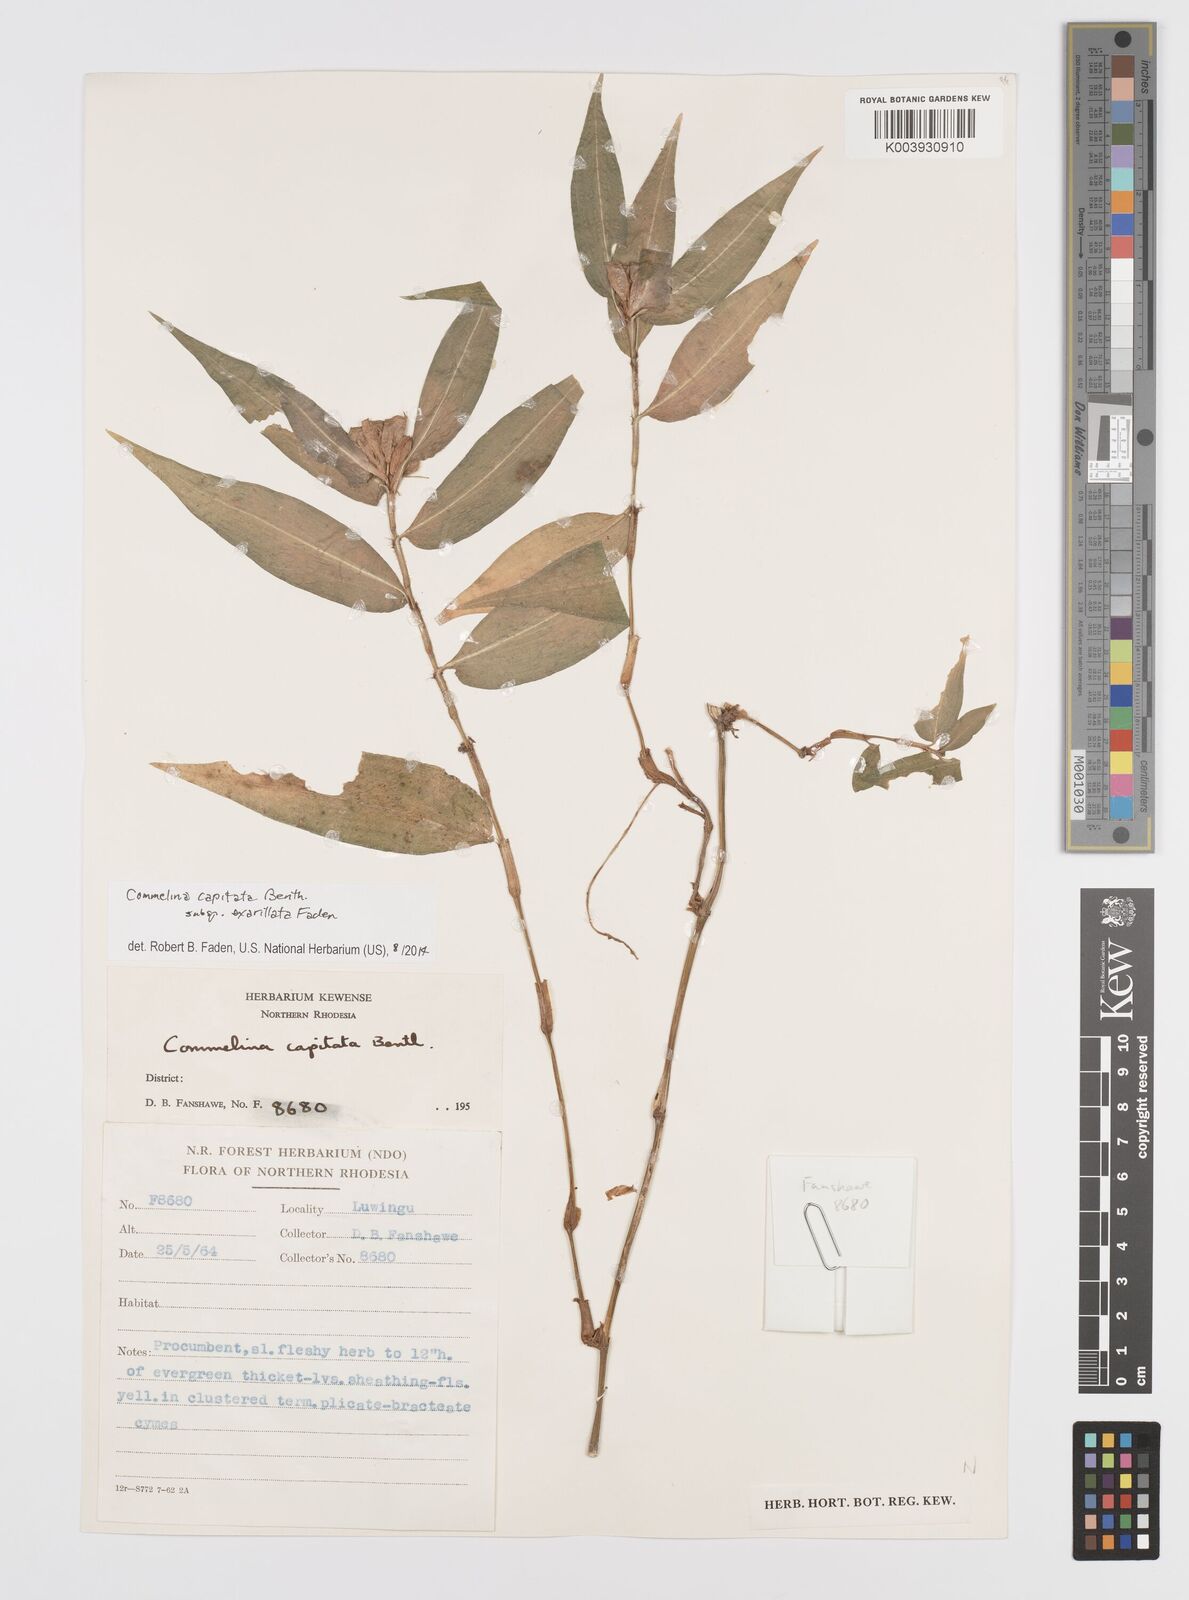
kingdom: Plantae
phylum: Tracheophyta
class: Liliopsida
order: Commelinales
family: Commelinaceae
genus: Commelina
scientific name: Commelina capitata
